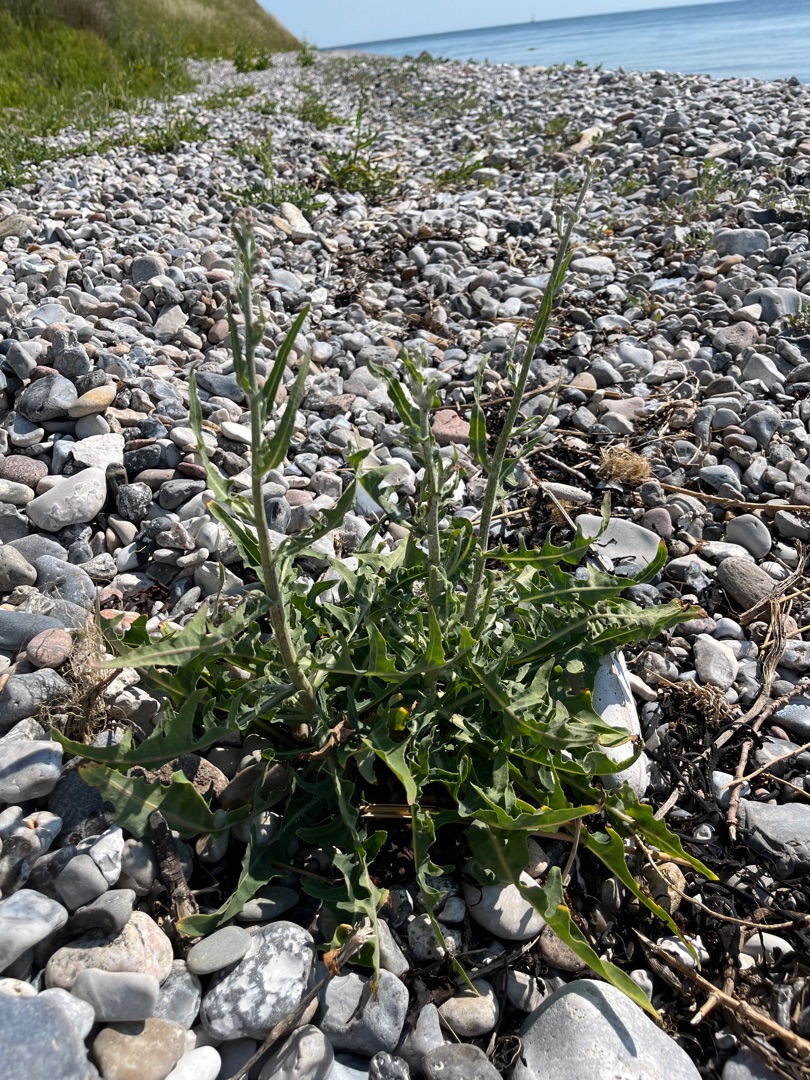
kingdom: Plantae
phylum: Tracheophyta
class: Magnoliopsida
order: Asterales
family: Asteraceae
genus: Lactuca
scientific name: Lactuca tatarica
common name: Strand-salat
